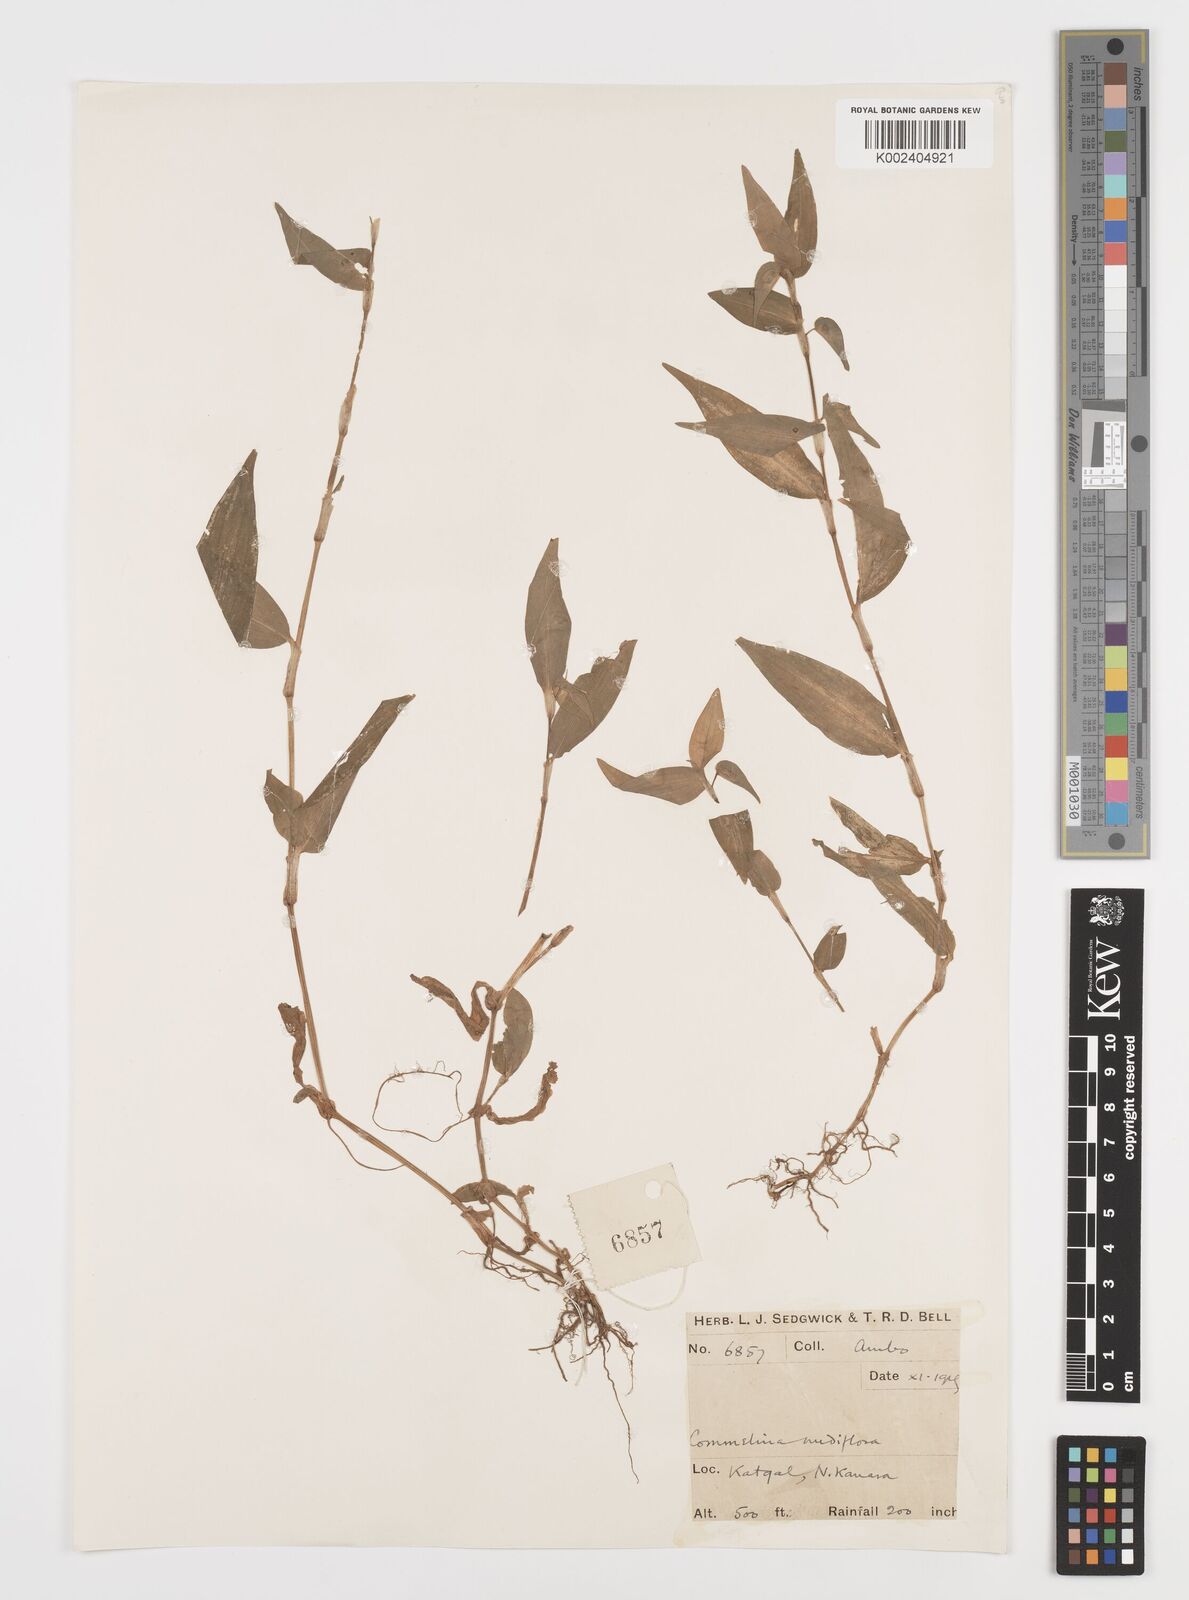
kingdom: Plantae
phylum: Tracheophyta
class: Liliopsida
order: Commelinales
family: Commelinaceae
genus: Commelina
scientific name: Commelina diffusa
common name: Climbing dayflower
